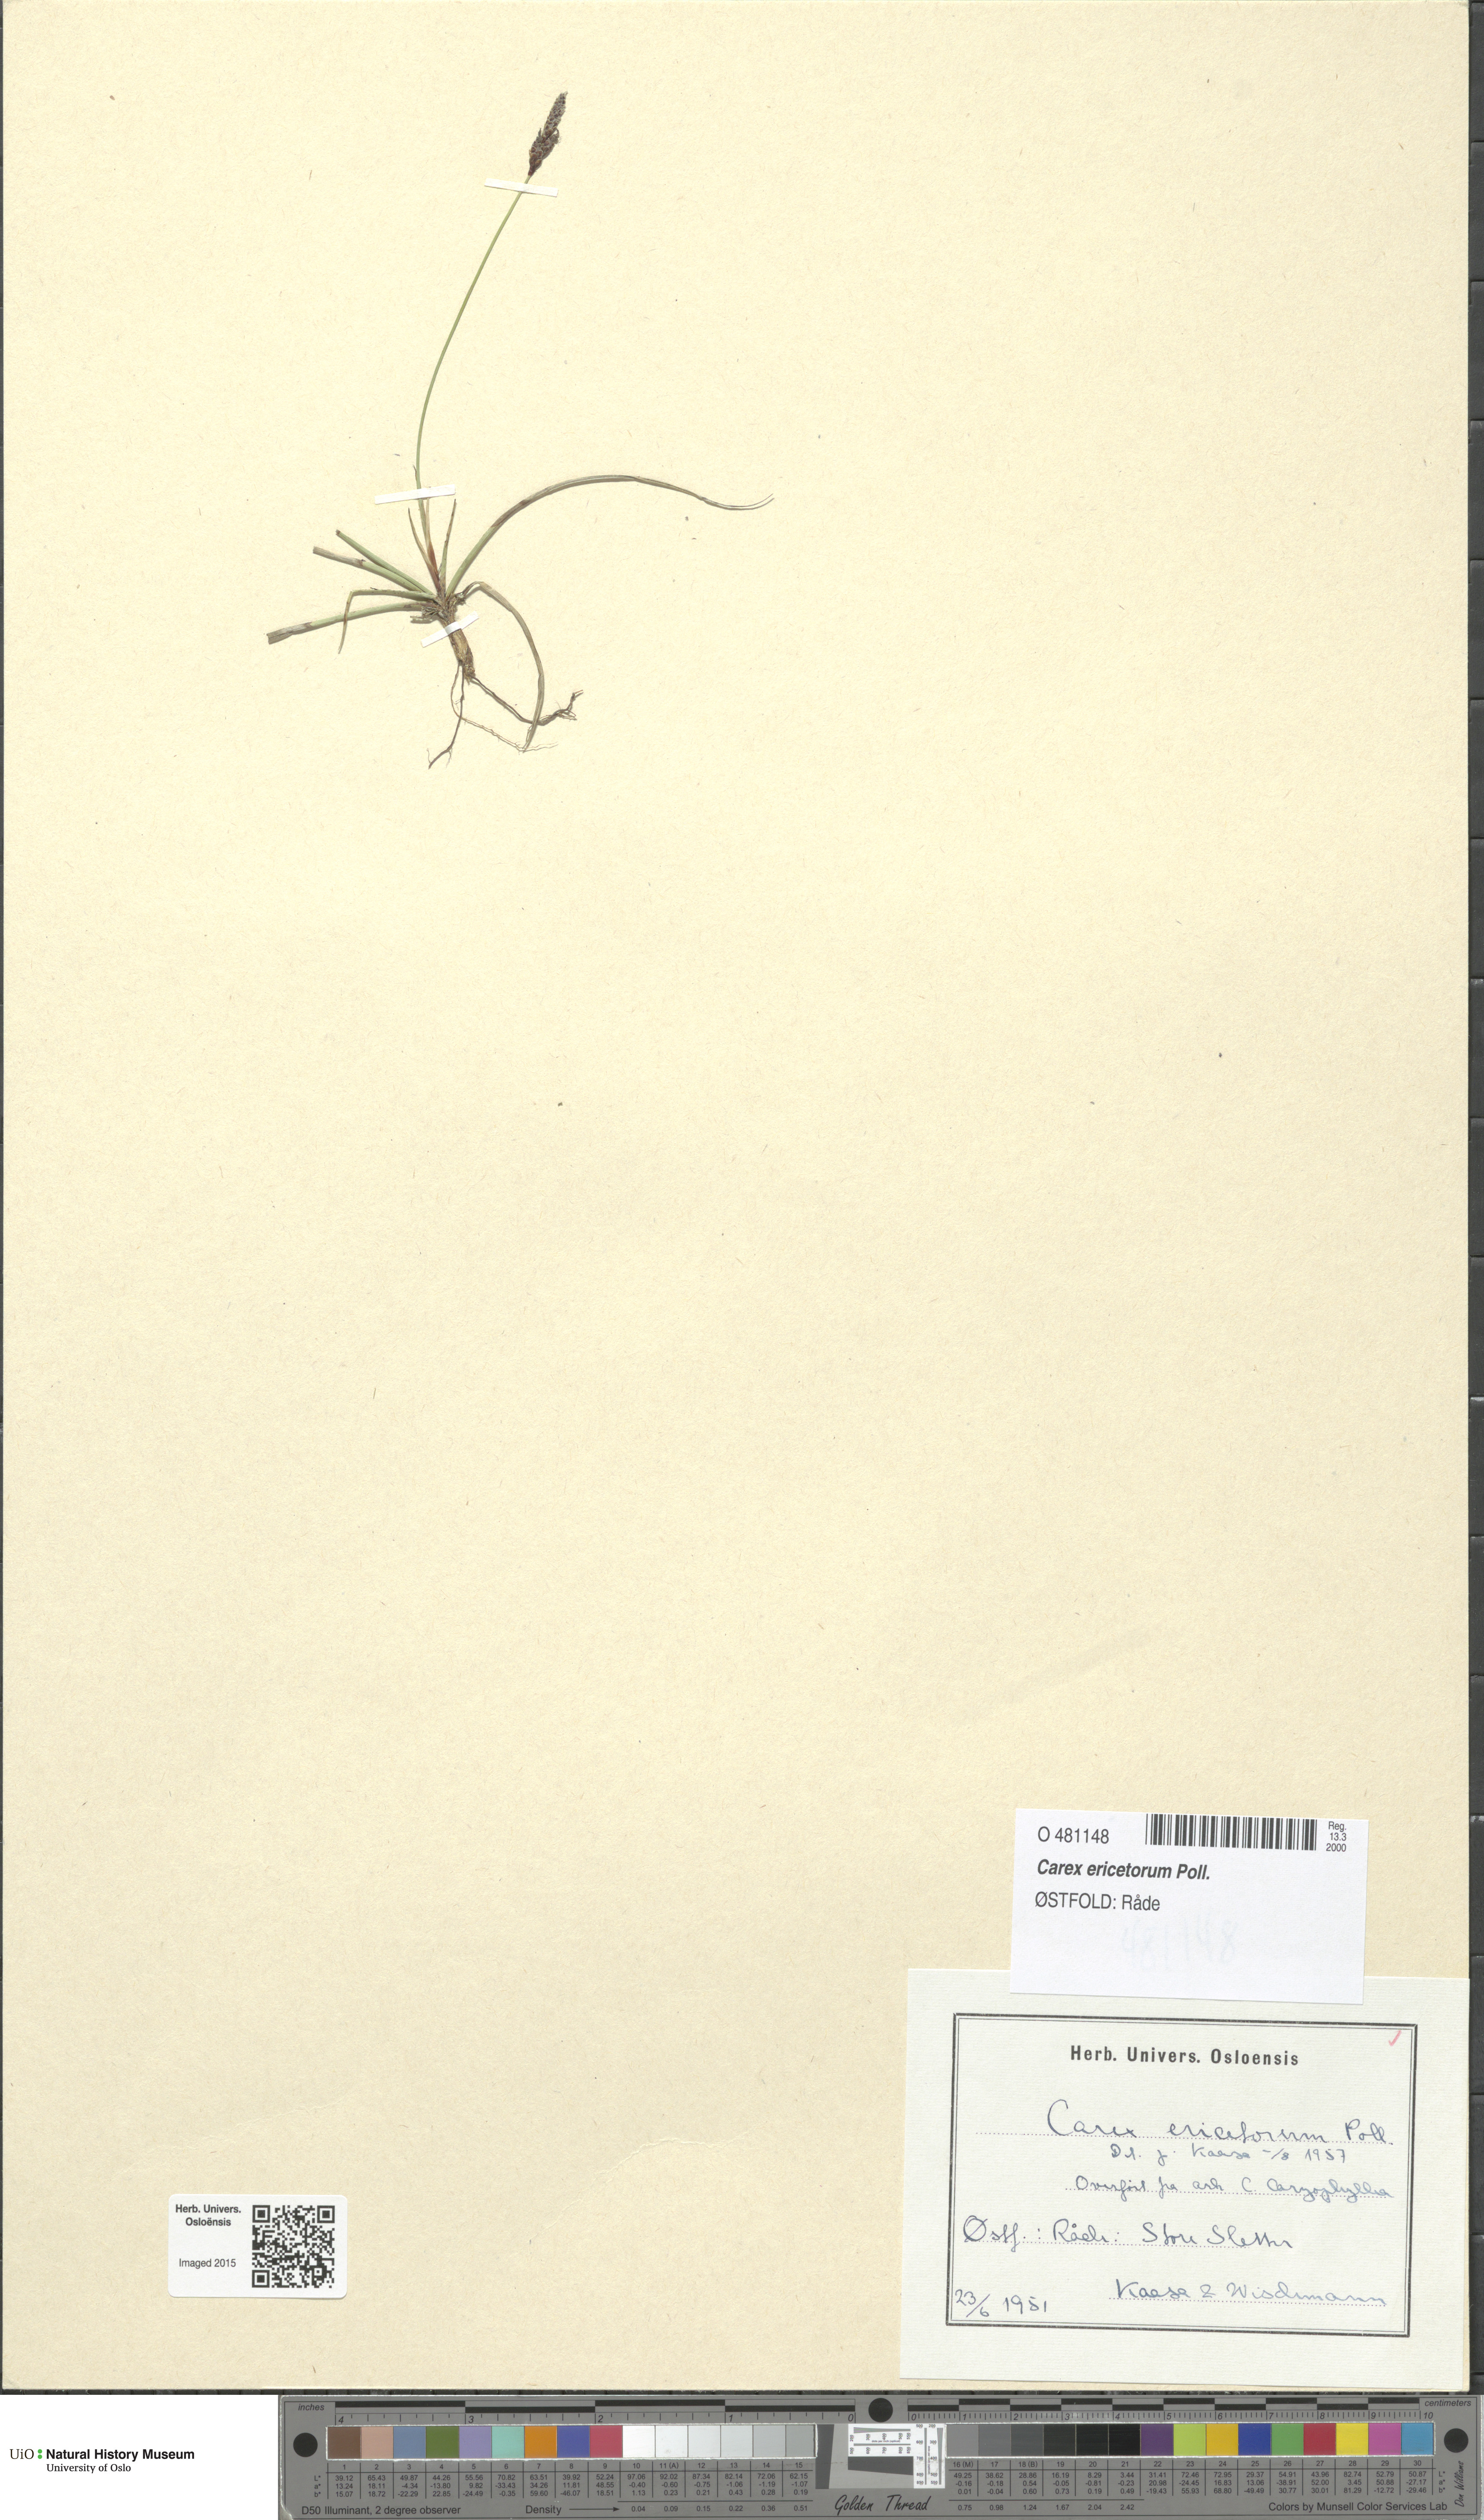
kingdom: Plantae
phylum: Tracheophyta
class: Liliopsida
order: Poales
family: Cyperaceae
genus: Carex
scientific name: Carex ericetorum
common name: Rare spring-sedge
